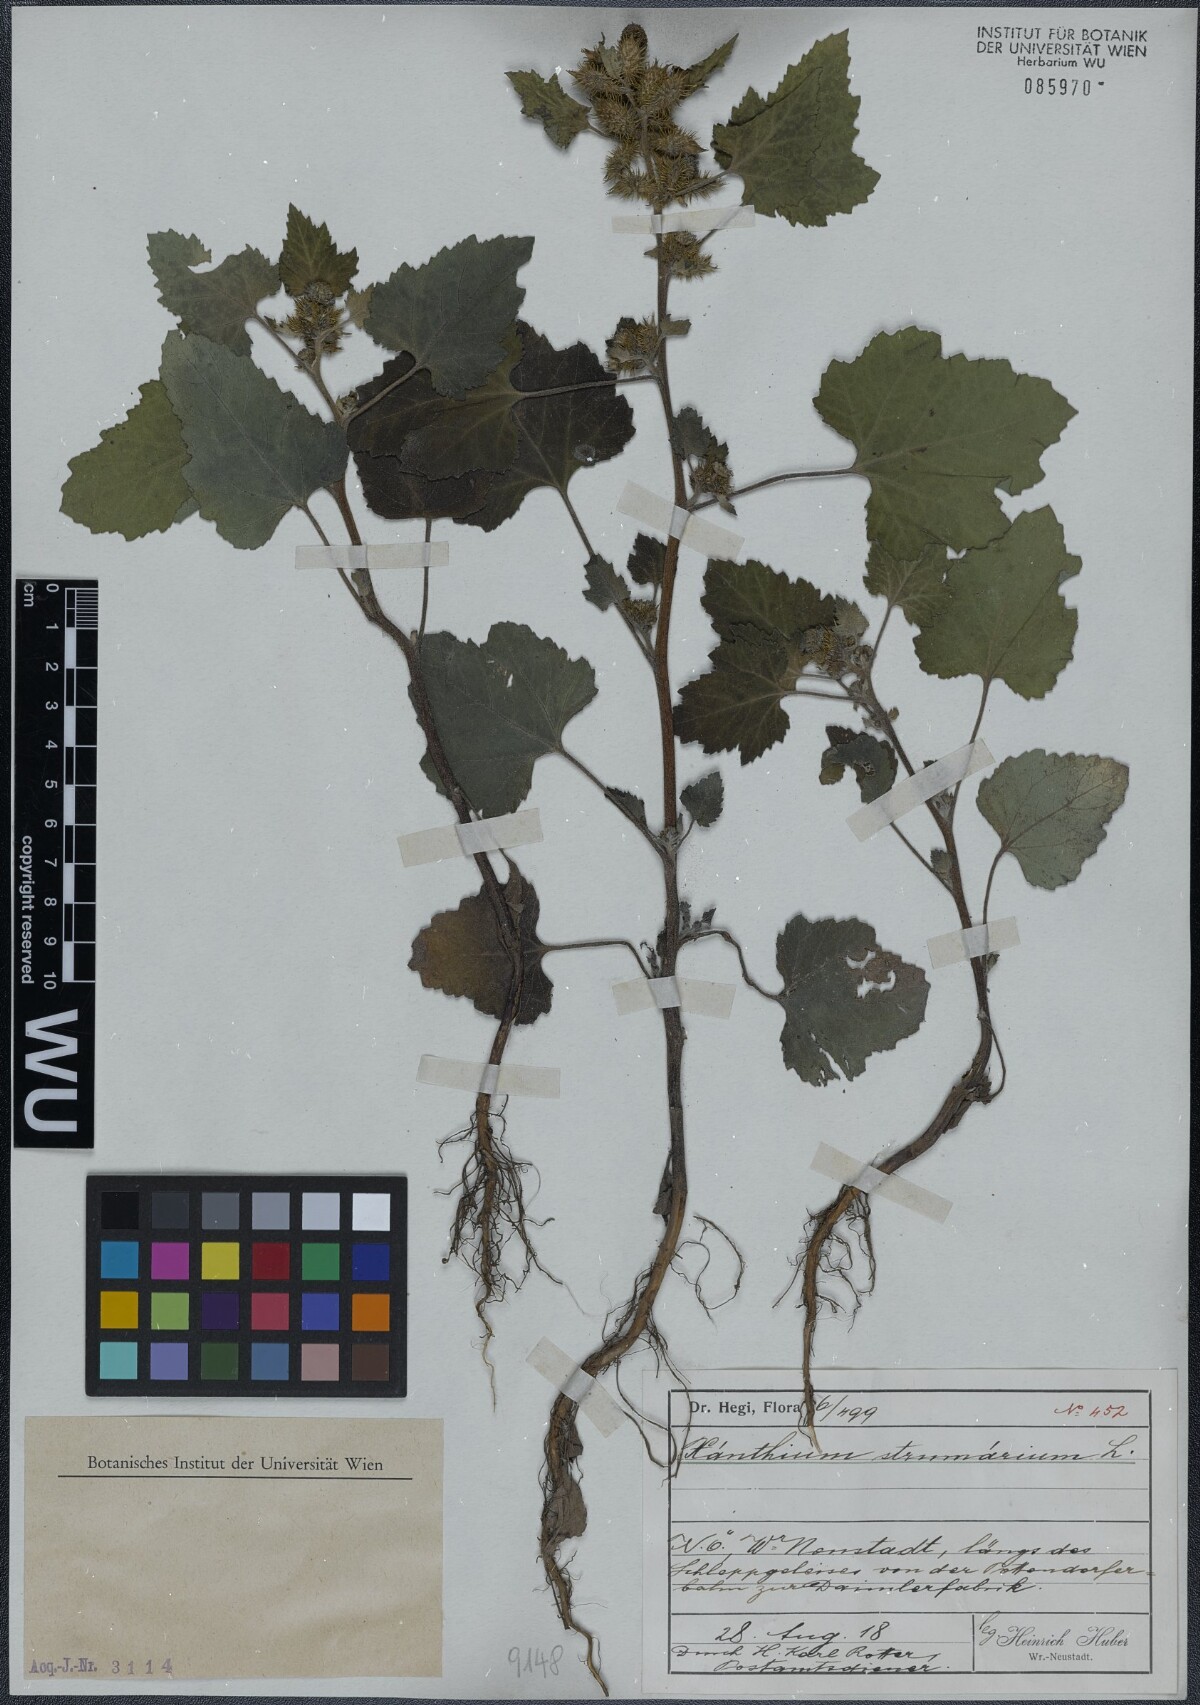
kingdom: Plantae
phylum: Tracheophyta
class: Magnoliopsida
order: Asterales
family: Asteraceae
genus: Xanthium
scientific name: Xanthium strumarium
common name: Rough cocklebur
